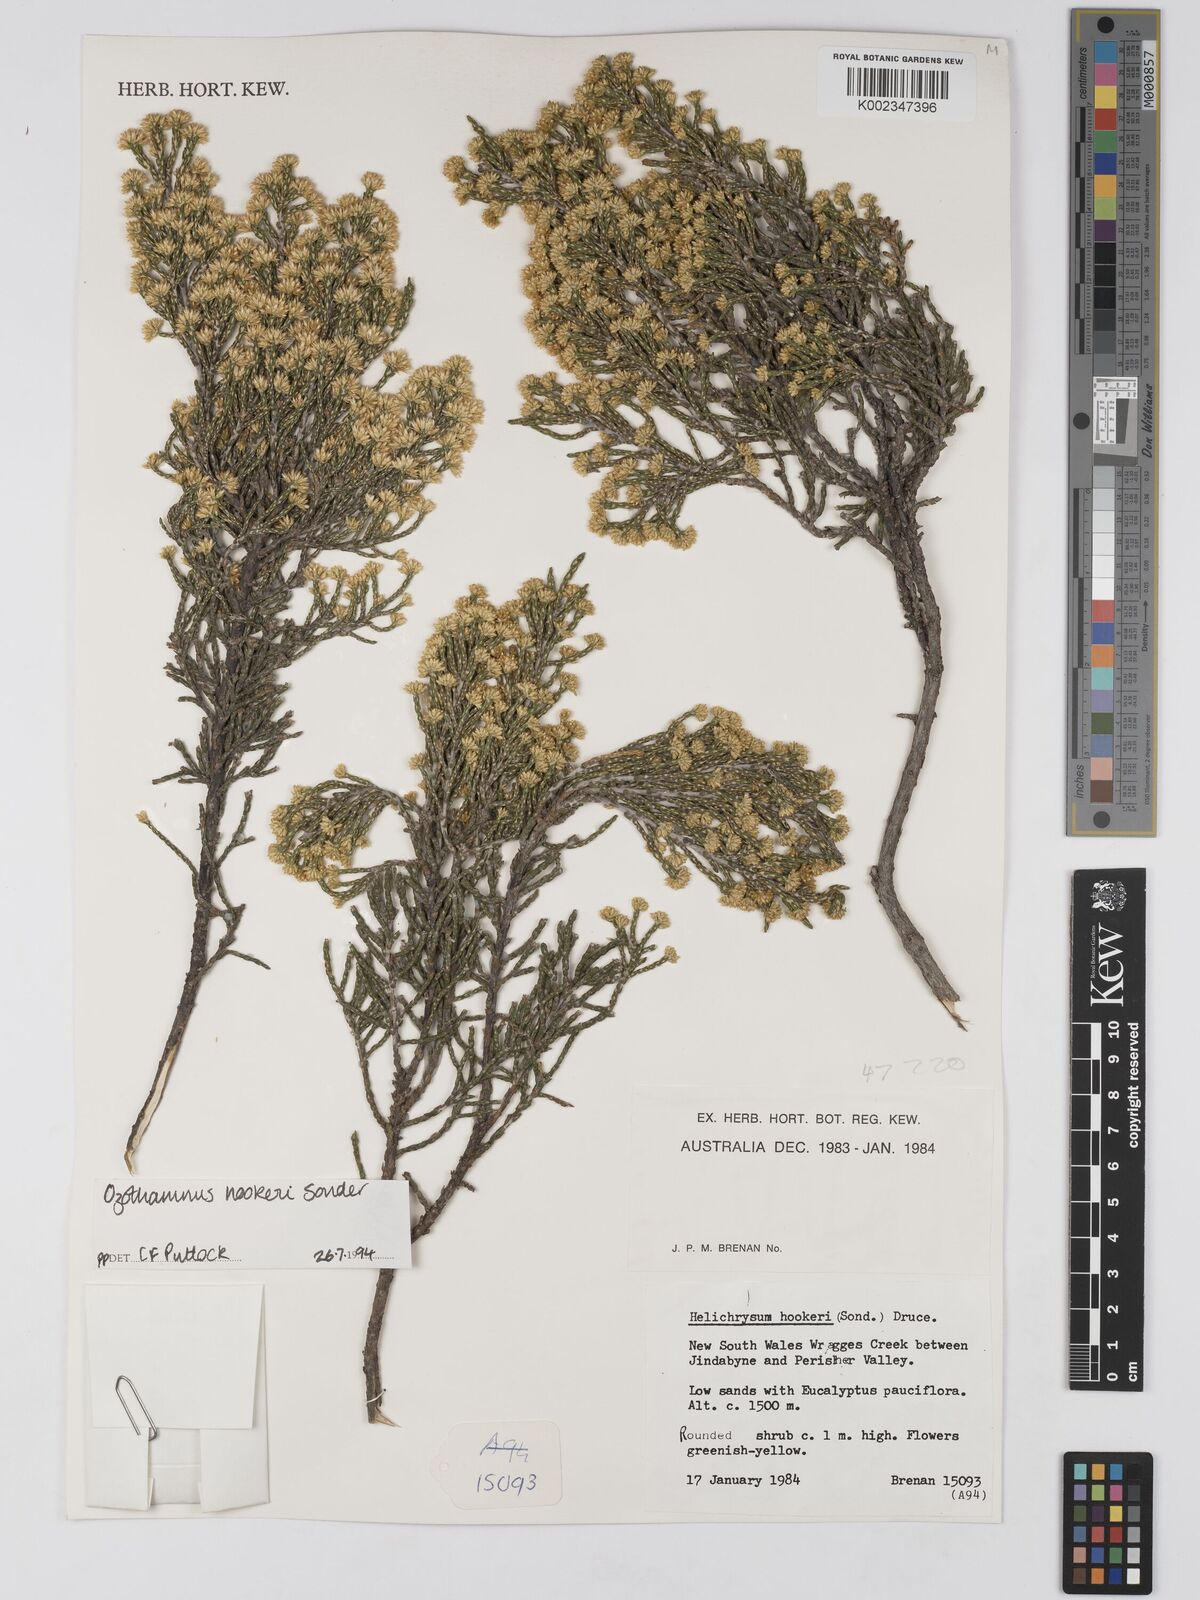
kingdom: Plantae
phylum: Tracheophyta
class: Magnoliopsida
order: Asterales
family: Asteraceae
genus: Ozothamnus
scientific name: Ozothamnus hookeri
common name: Kerosene-bush
